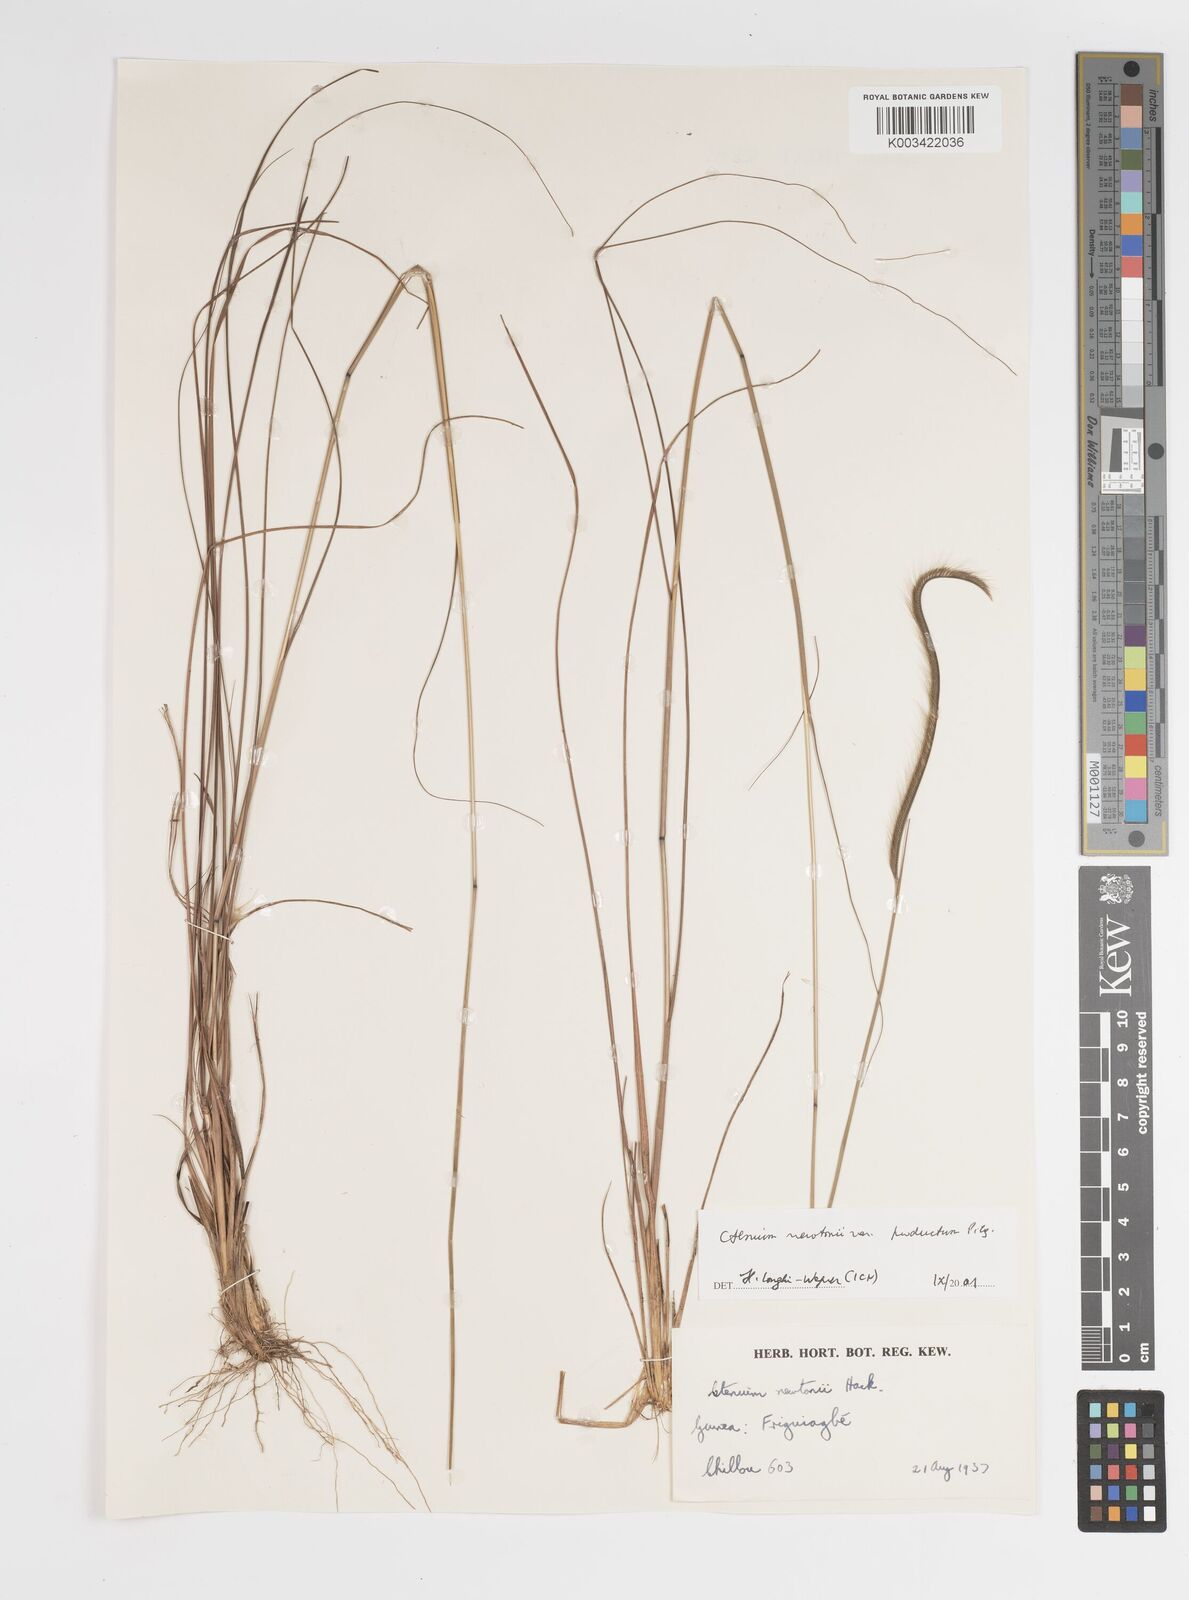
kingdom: Plantae
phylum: Tracheophyta
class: Liliopsida
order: Poales
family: Poaceae
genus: Ctenium
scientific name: Ctenium newtonii
